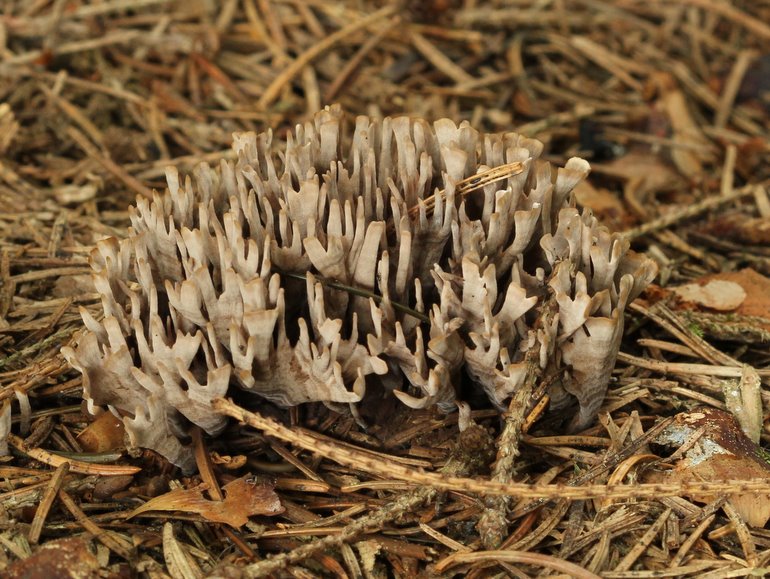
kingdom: Fungi
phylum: Basidiomycota
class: Agaricomycetes
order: Thelephorales
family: Thelephoraceae
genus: Thelephora
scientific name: Thelephora palmata
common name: grenet frynsesvamp
